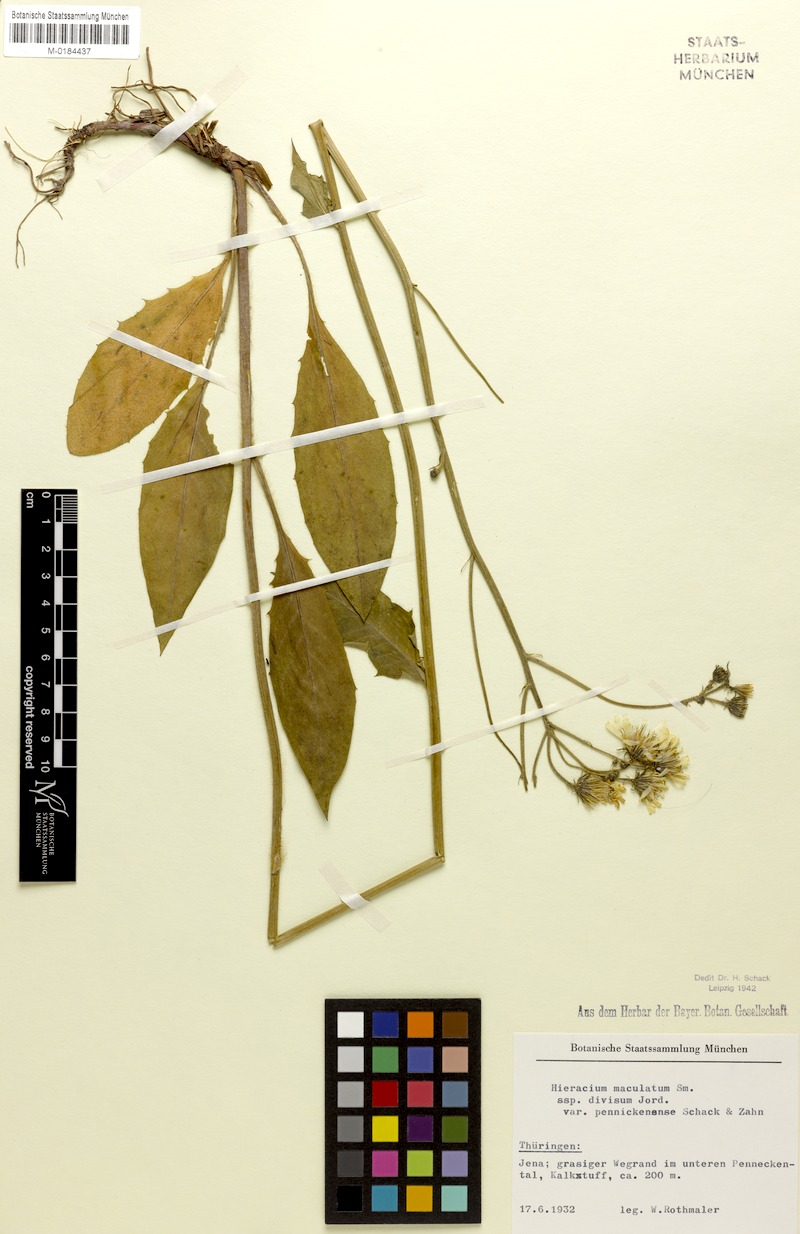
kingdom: Plantae
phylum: Tracheophyta
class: Magnoliopsida
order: Asterales
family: Asteraceae
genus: Hieracium
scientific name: Hieracium maculatum
